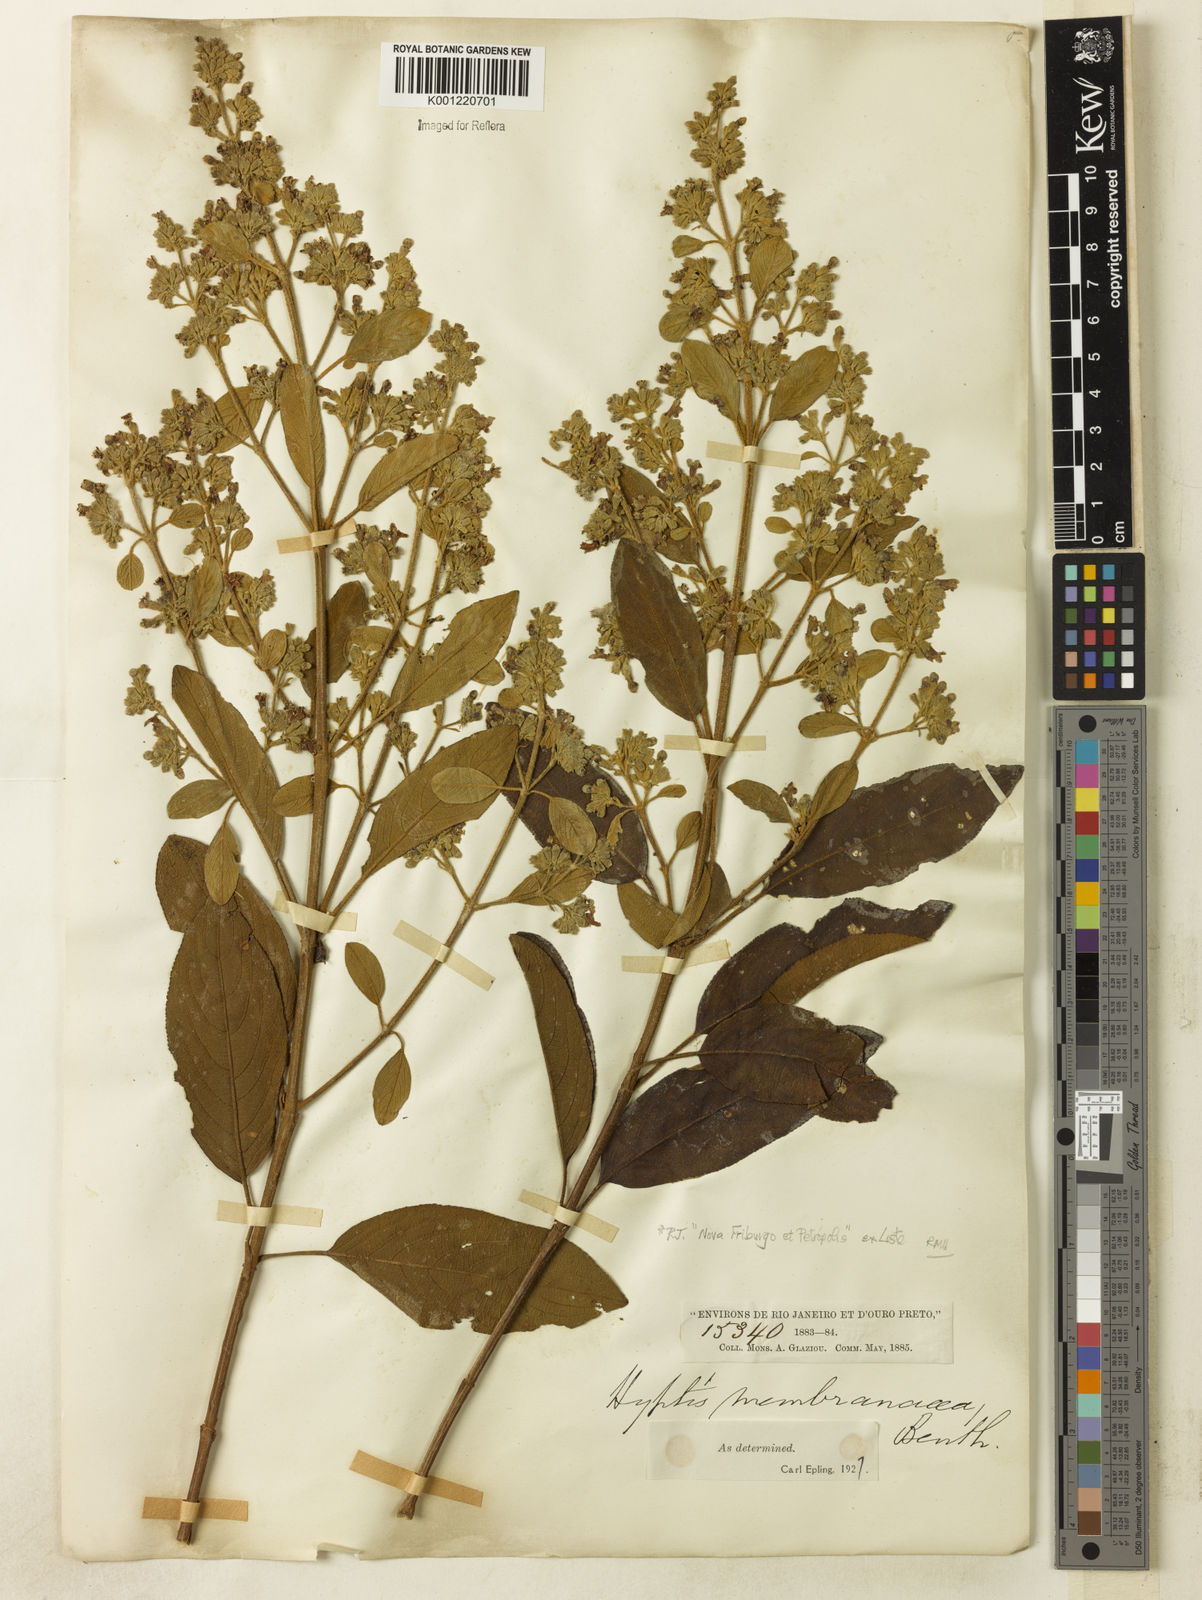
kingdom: Plantae
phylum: Tracheophyta
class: Magnoliopsida
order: Lamiales
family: Lamiaceae
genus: Hyptidendron
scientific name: Hyptidendron asperrimum
